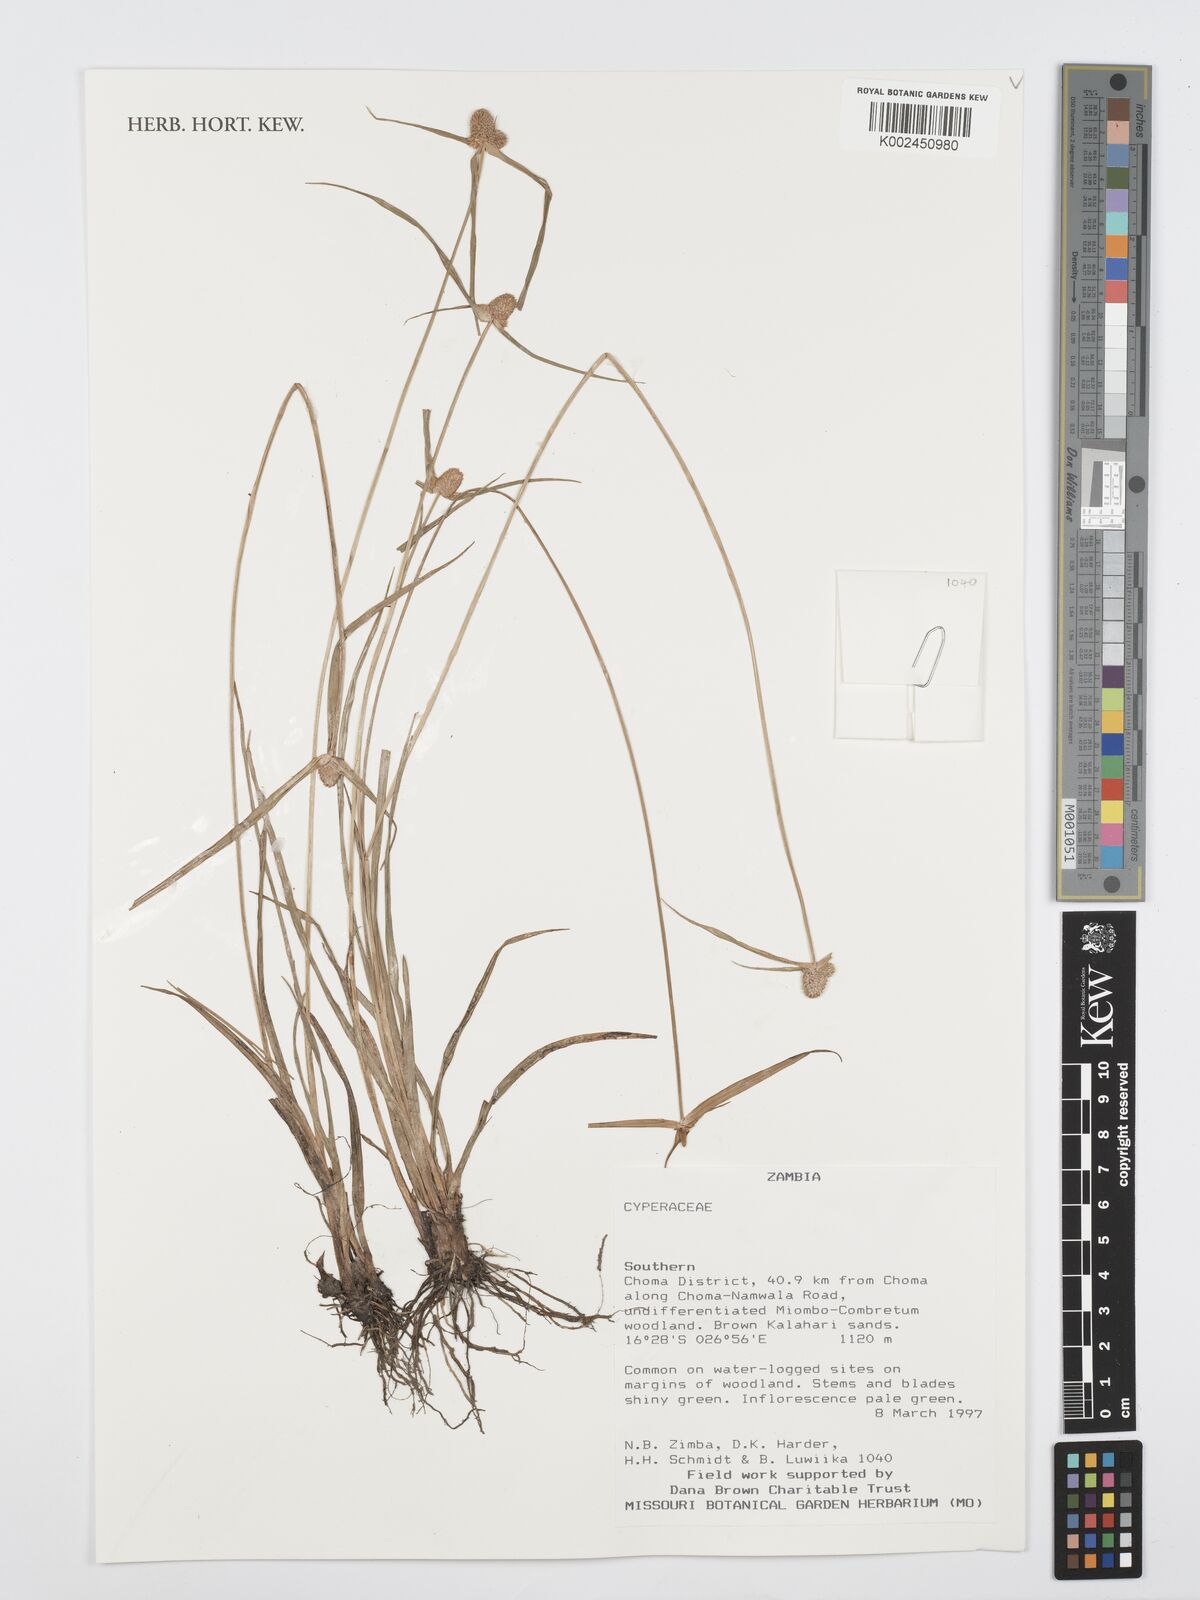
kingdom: Plantae
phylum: Tracheophyta
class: Liliopsida
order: Poales
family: Cyperaceae
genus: Cyperus
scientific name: Cyperus
